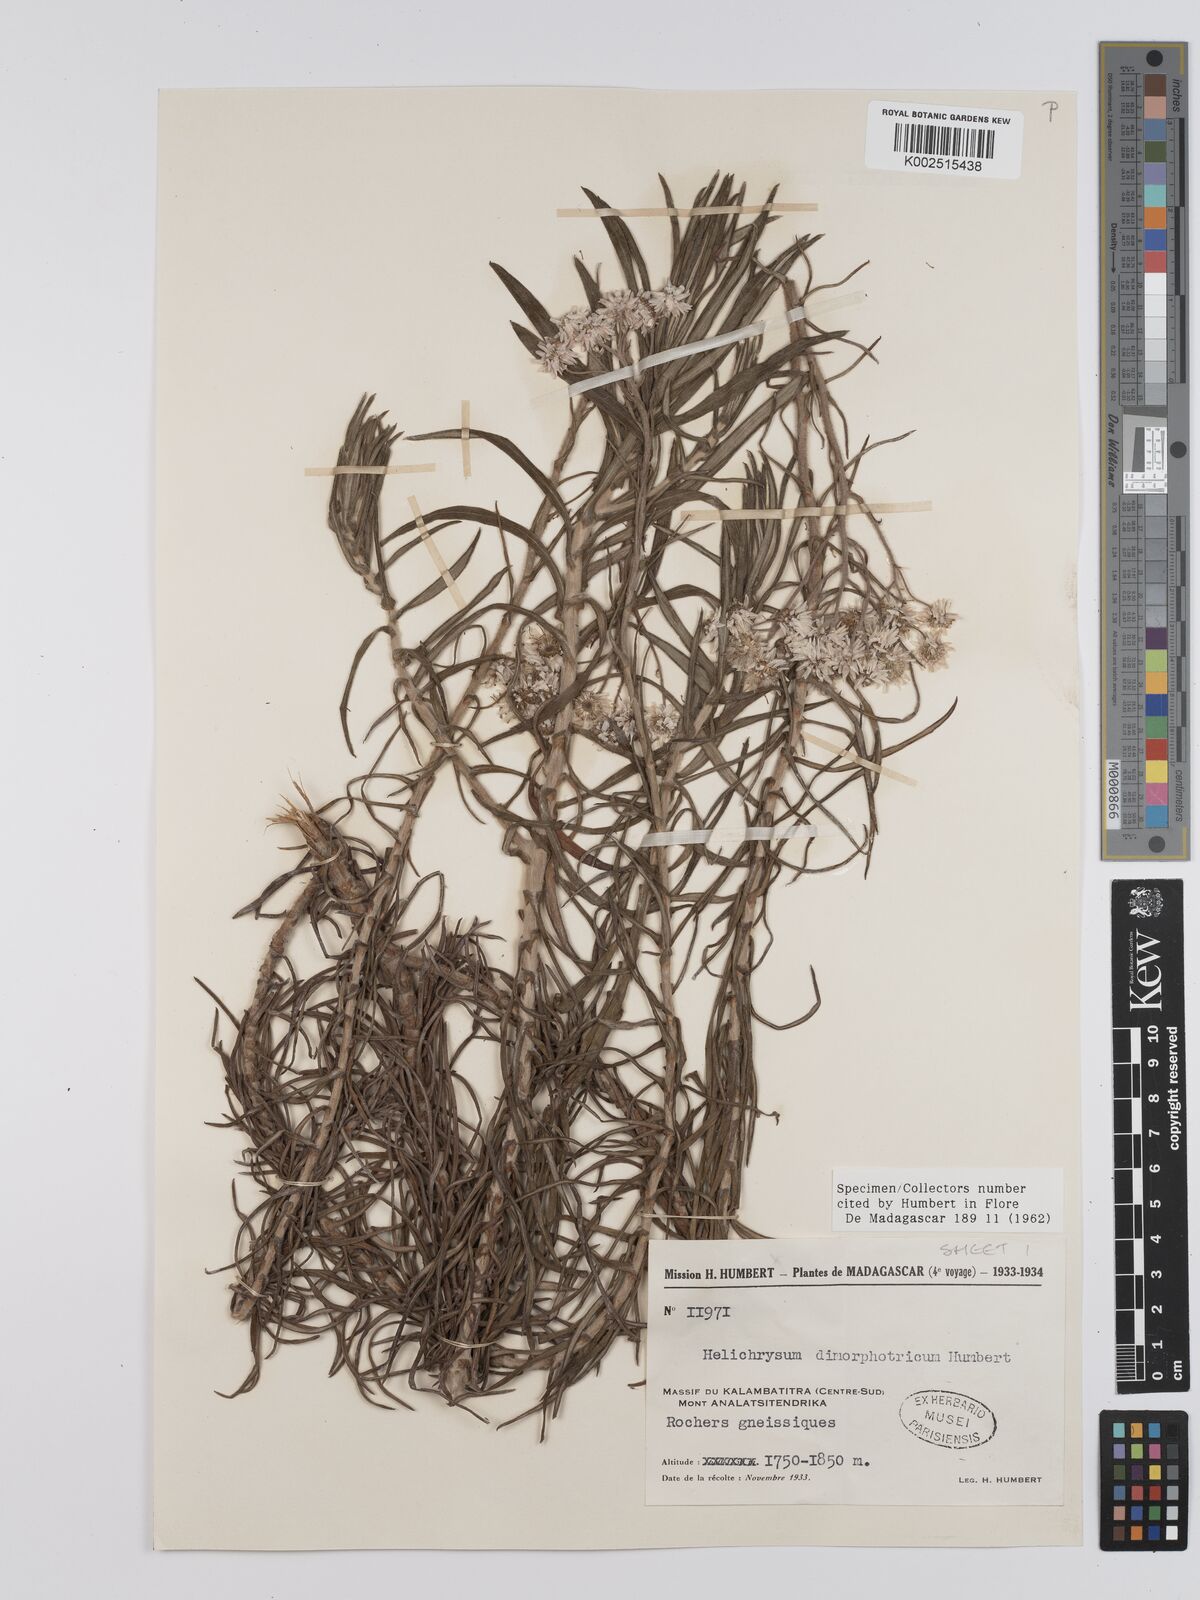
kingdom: Plantae
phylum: Tracheophyta
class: Magnoliopsida
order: Asterales
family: Asteraceae
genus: Helichrysum
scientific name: Helichrysum dimorphotrichum
